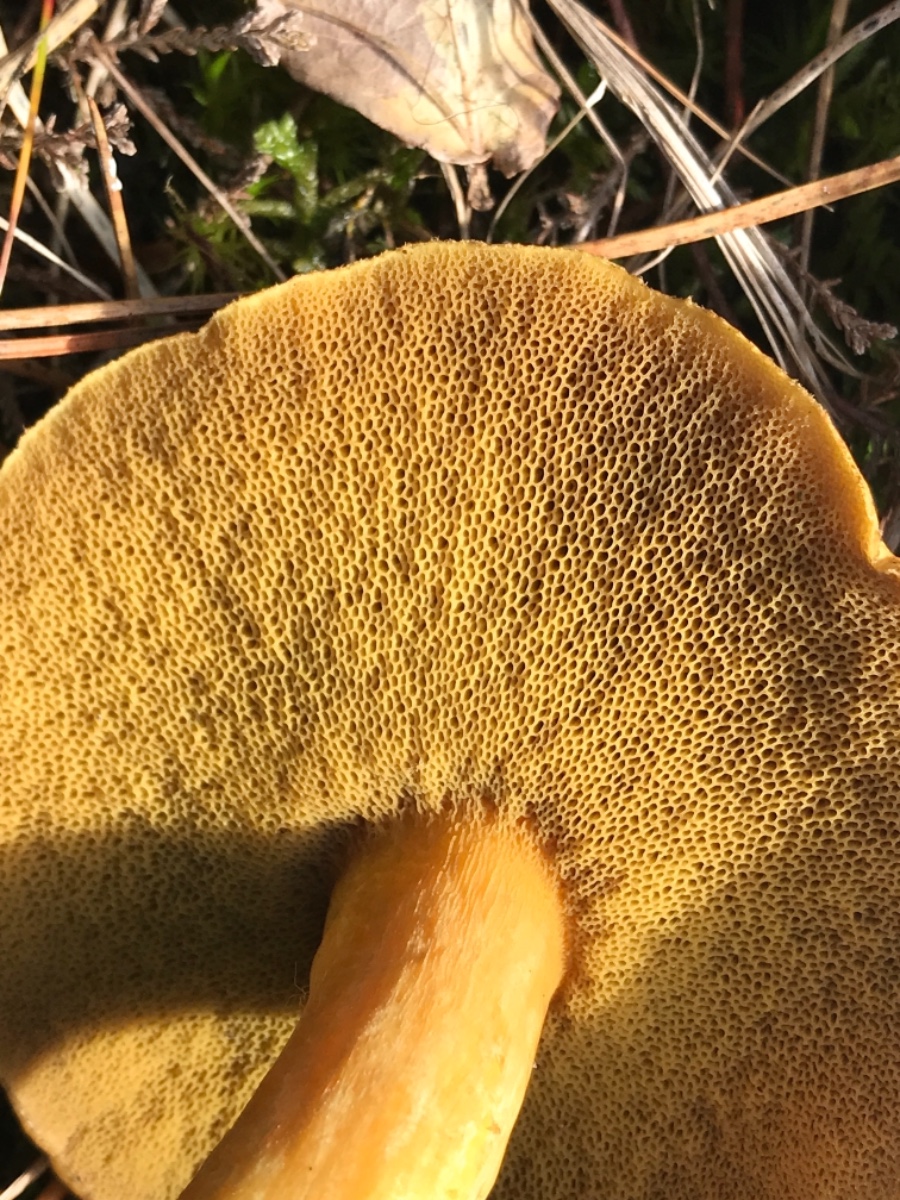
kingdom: Fungi
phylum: Basidiomycota
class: Agaricomycetes
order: Boletales
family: Suillaceae
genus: Suillus
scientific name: Suillus variegatus
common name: broget slimrørhat
